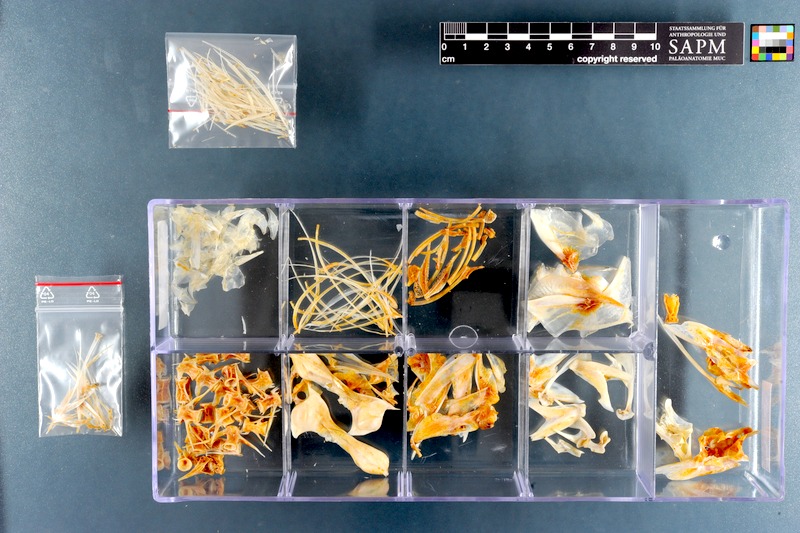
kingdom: Animalia
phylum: Chordata
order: Perciformes
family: Carangidae
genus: Trachurus
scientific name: Trachurus trachurus
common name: Horse mackerel
